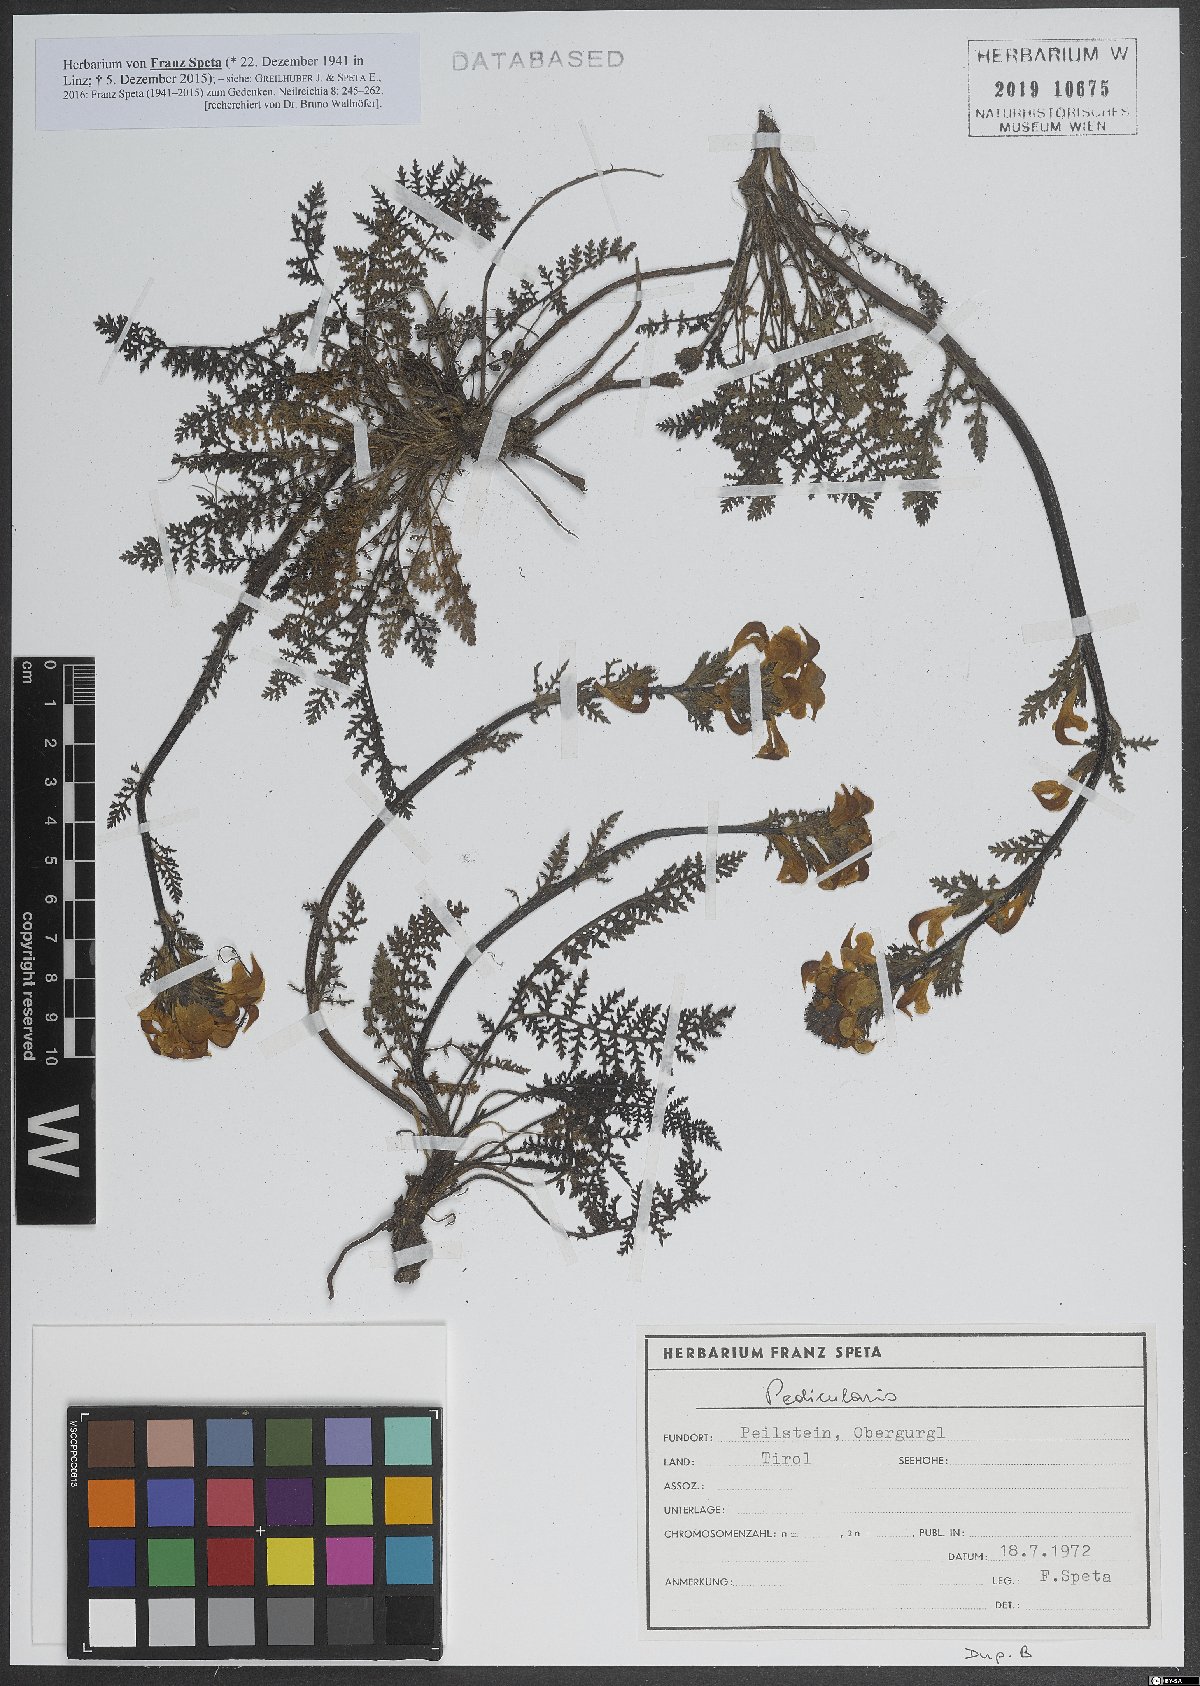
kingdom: Plantae
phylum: Tracheophyta
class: Magnoliopsida
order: Lamiales
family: Orobanchaceae
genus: Pedicularis
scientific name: Pedicularis
